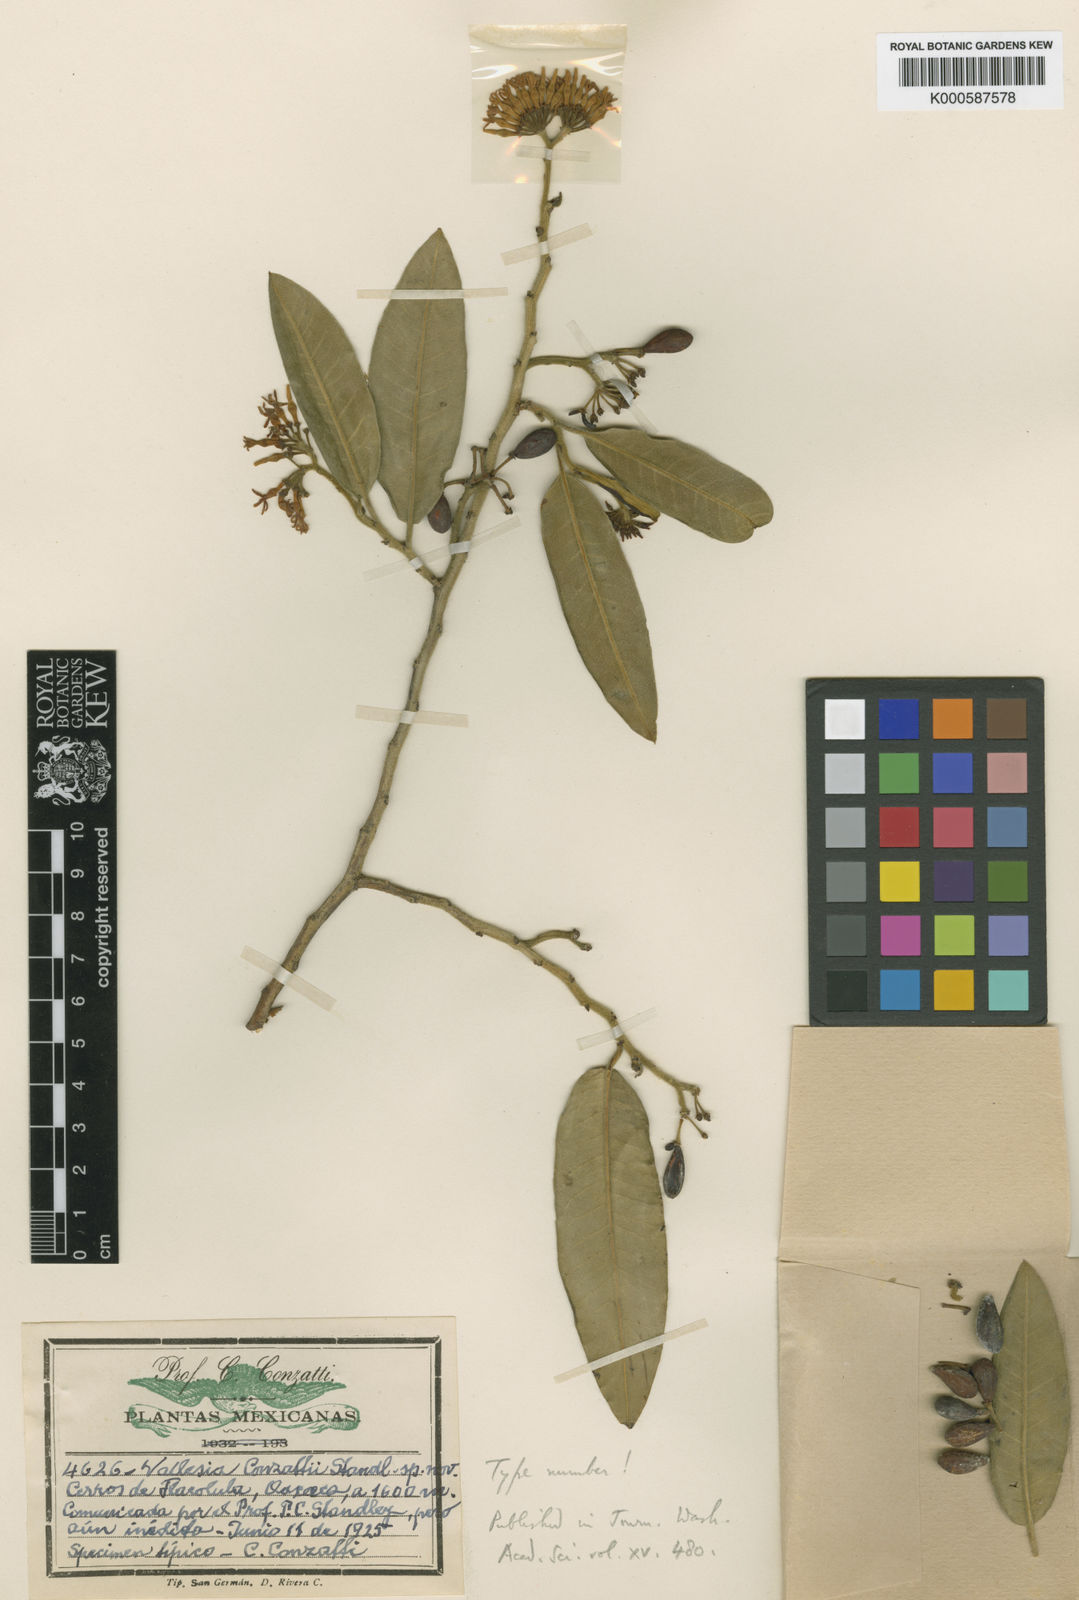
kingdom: Plantae
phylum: Tracheophyta
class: Magnoliopsida
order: Gentianales
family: Apocynaceae
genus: Vallesia
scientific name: Vallesia conzattii
